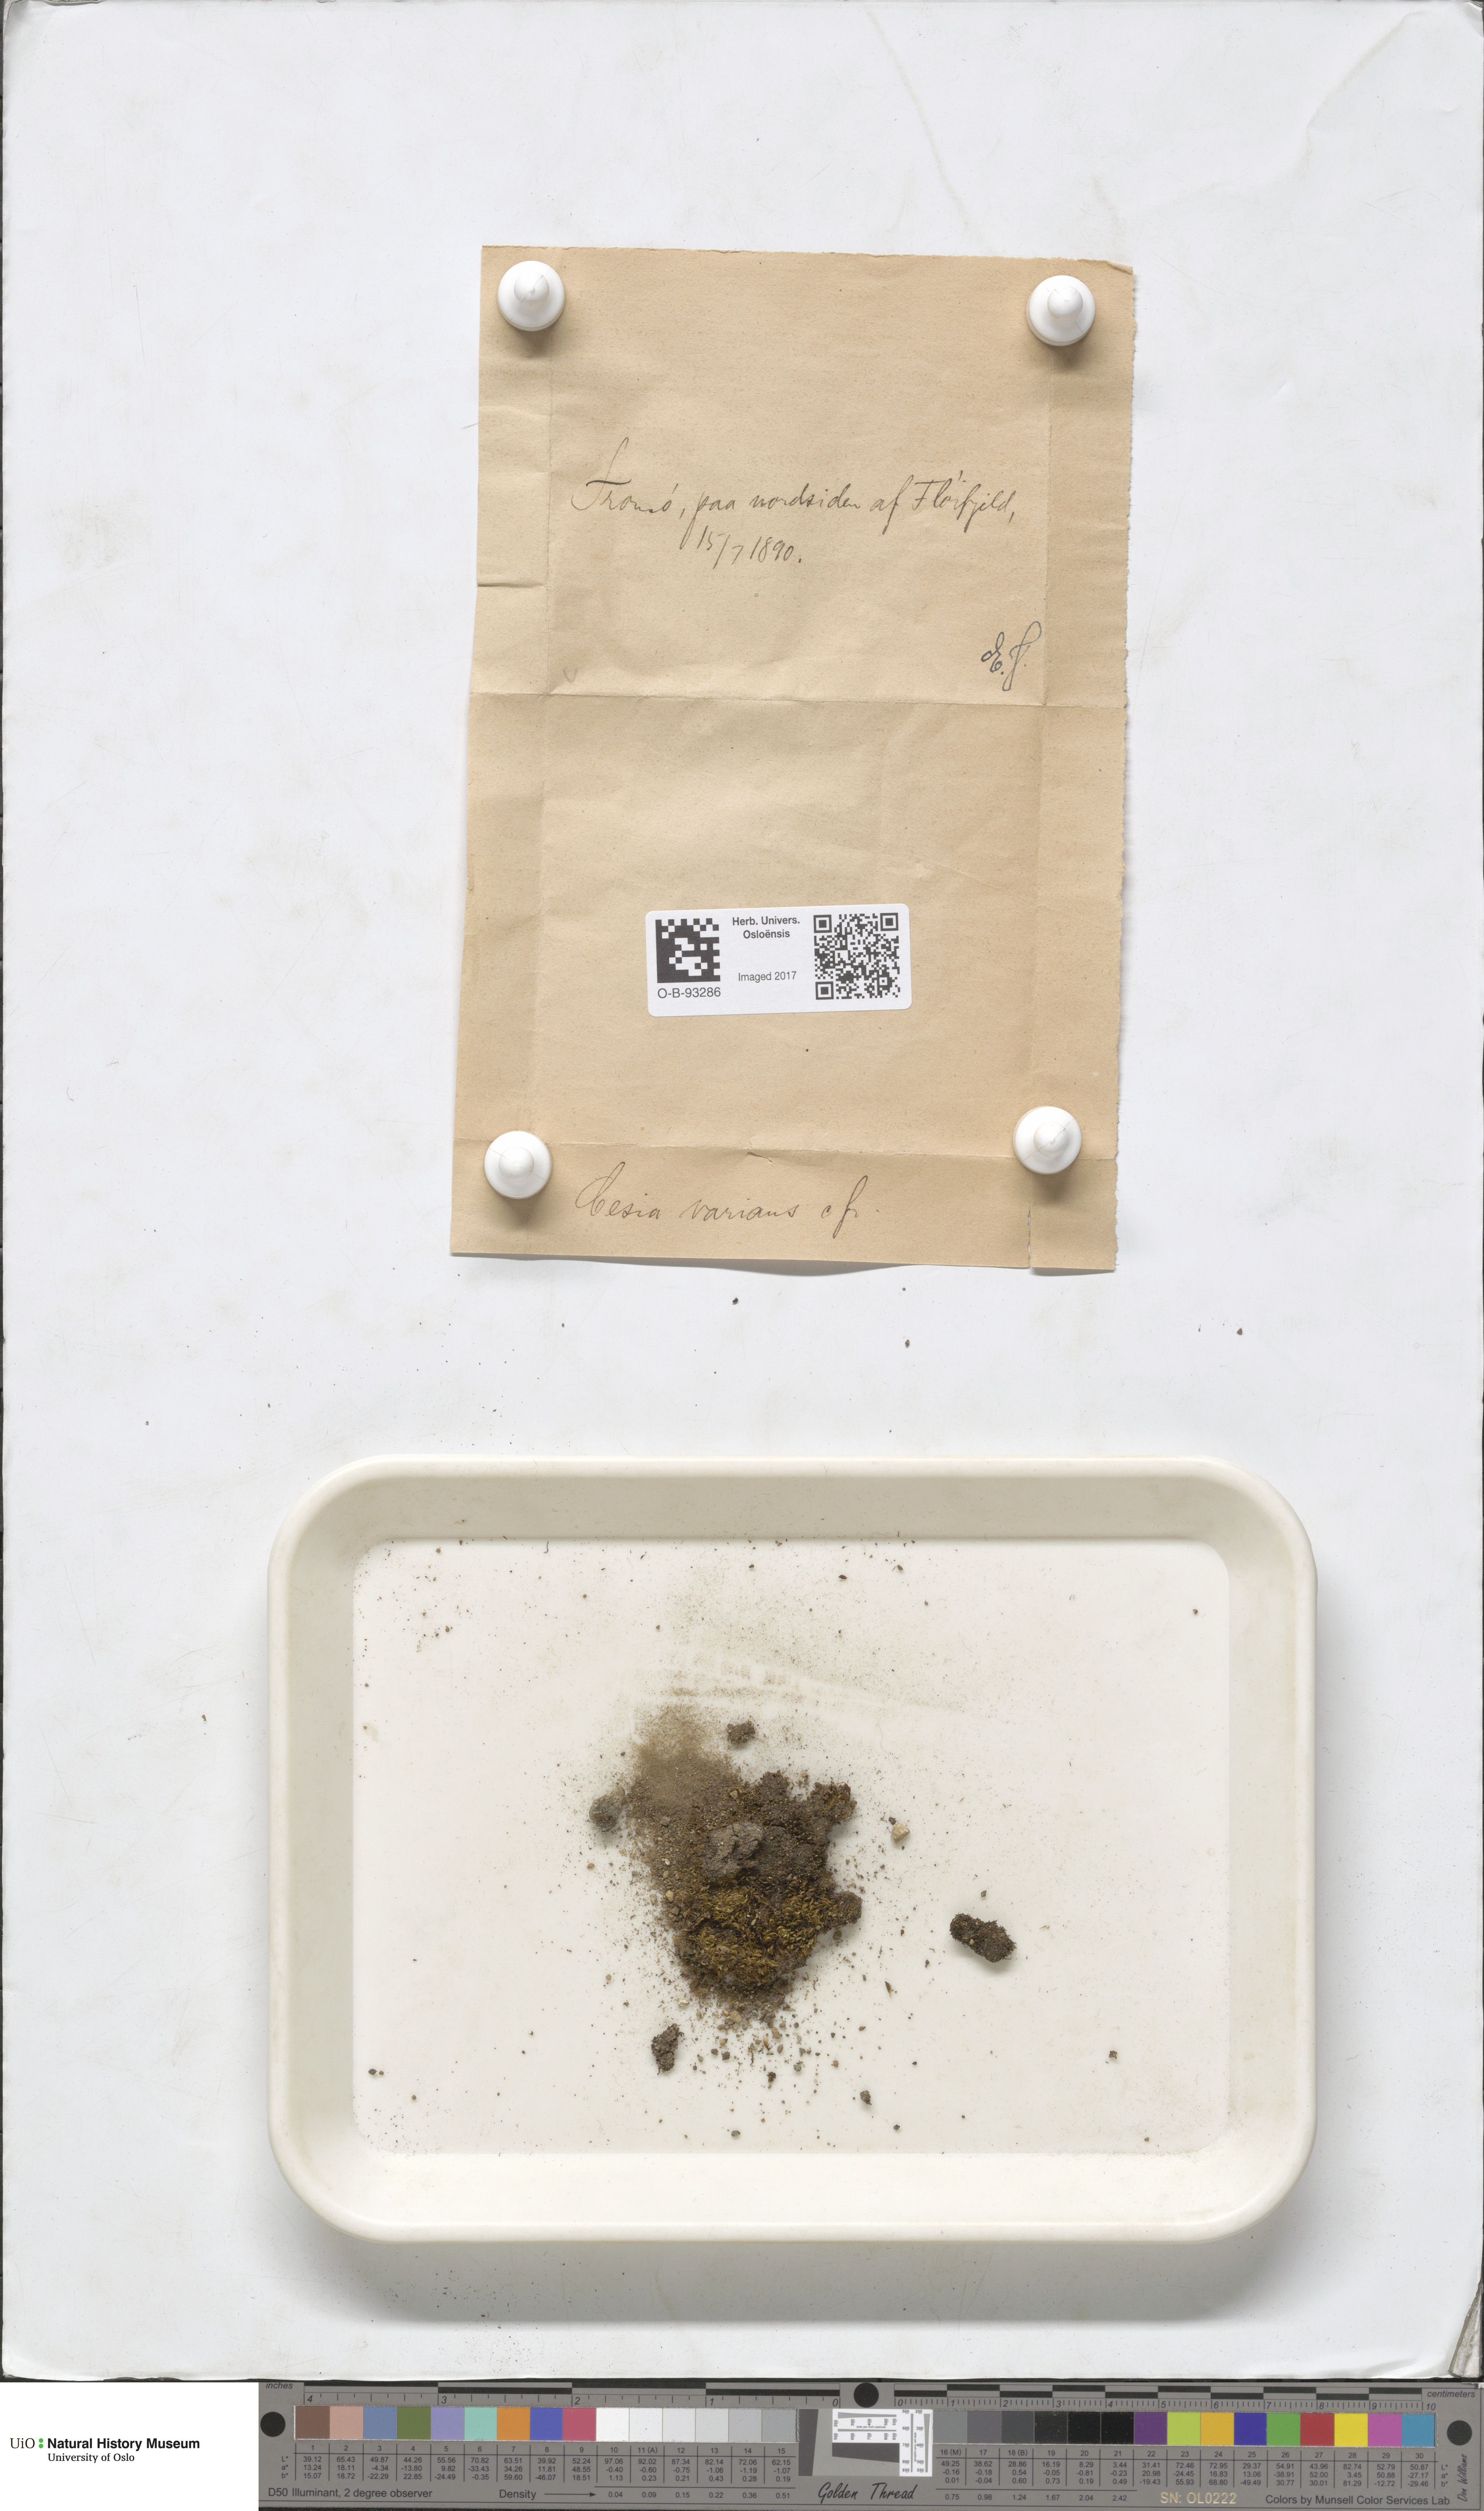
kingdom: Plantae
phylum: Marchantiophyta
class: Jungermanniopsida
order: Jungermanniales
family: Gymnomitriaceae
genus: Gymnomitrion
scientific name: Gymnomitrion brevissimum
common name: Snow rustwort
